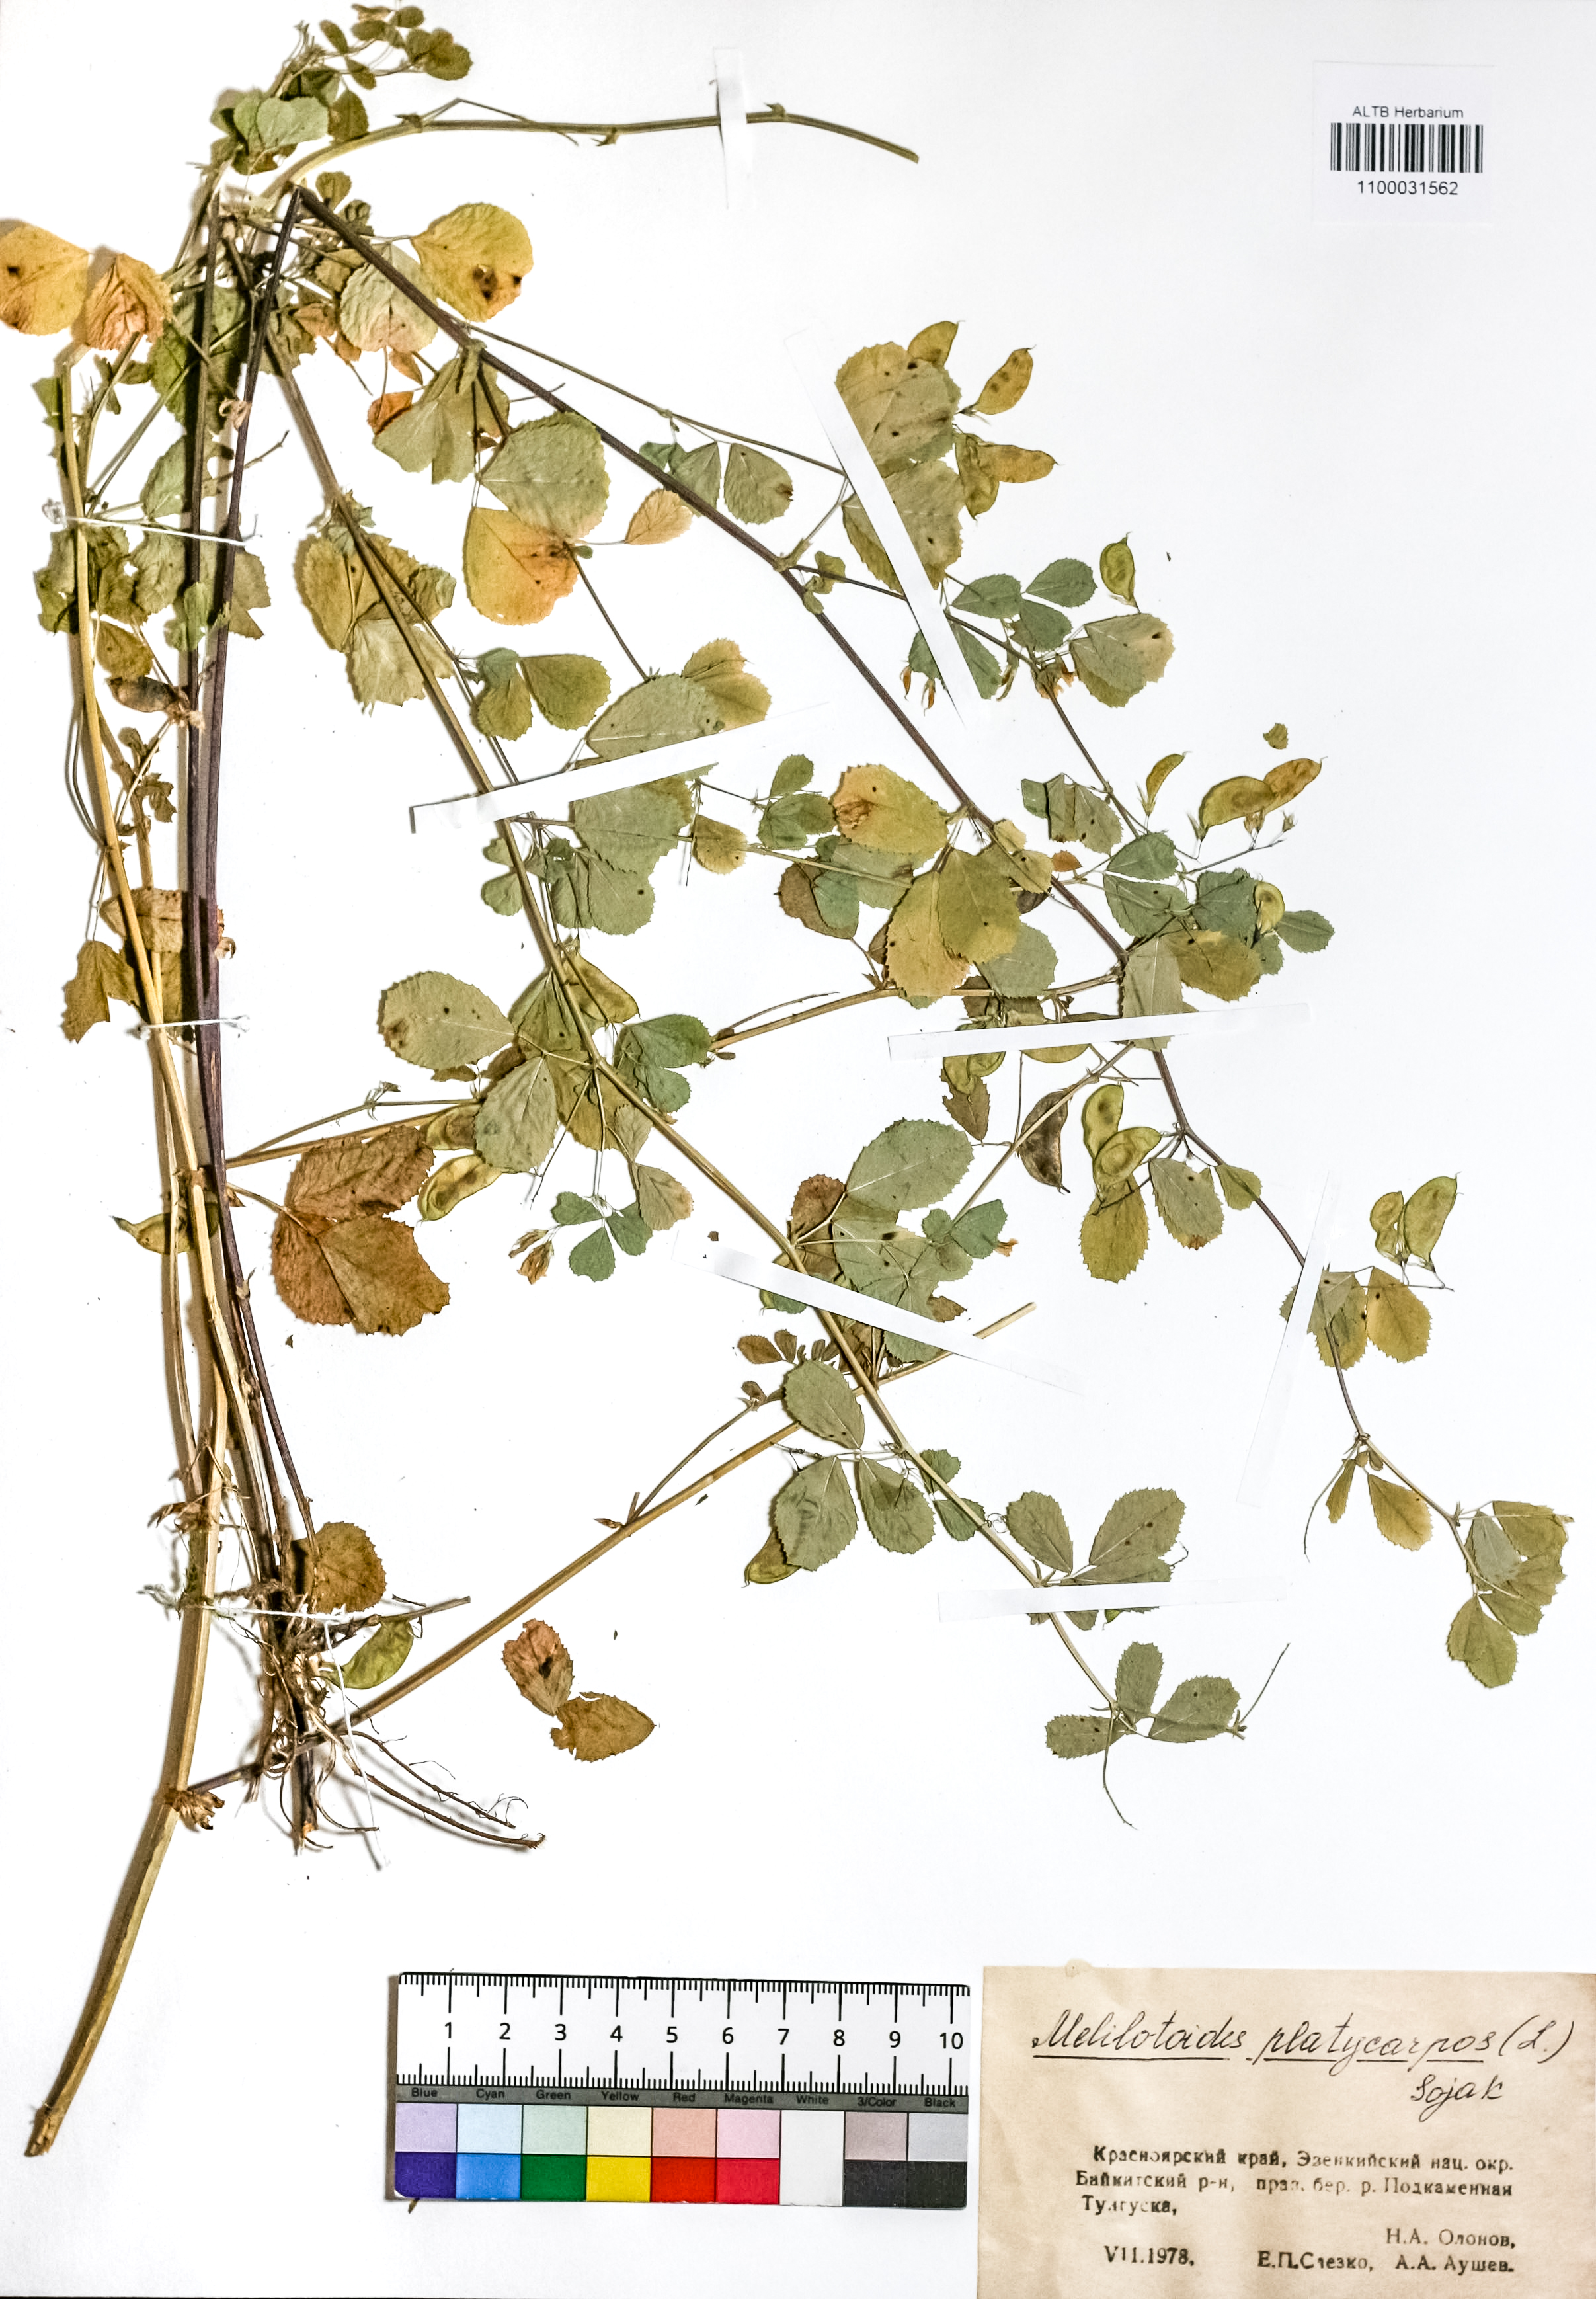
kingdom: Plantae
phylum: Tracheophyta
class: Magnoliopsida
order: Fabales
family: Fabaceae
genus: Medicago
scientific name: Medicago platycarpos
